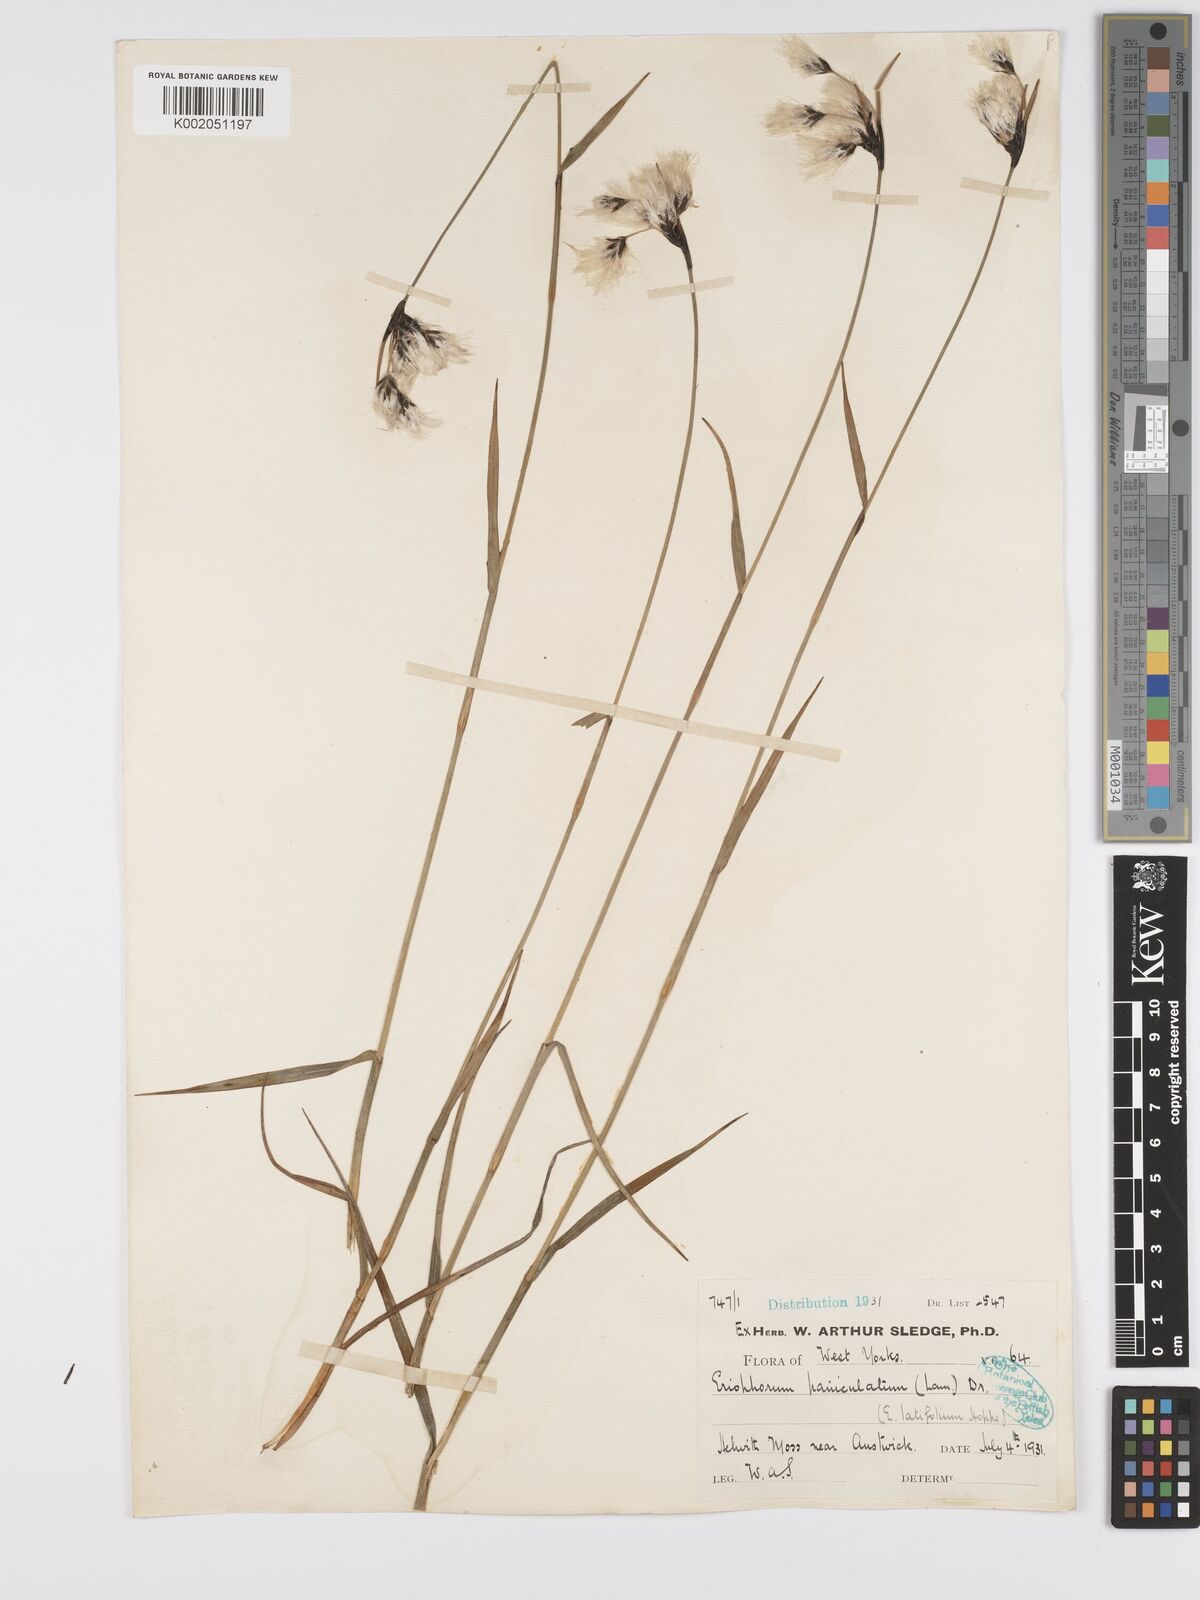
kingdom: Plantae
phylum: Tracheophyta
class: Liliopsida
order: Poales
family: Cyperaceae
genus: Eriophorum
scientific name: Eriophorum latifolium
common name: Broad-leaved cottongrass
